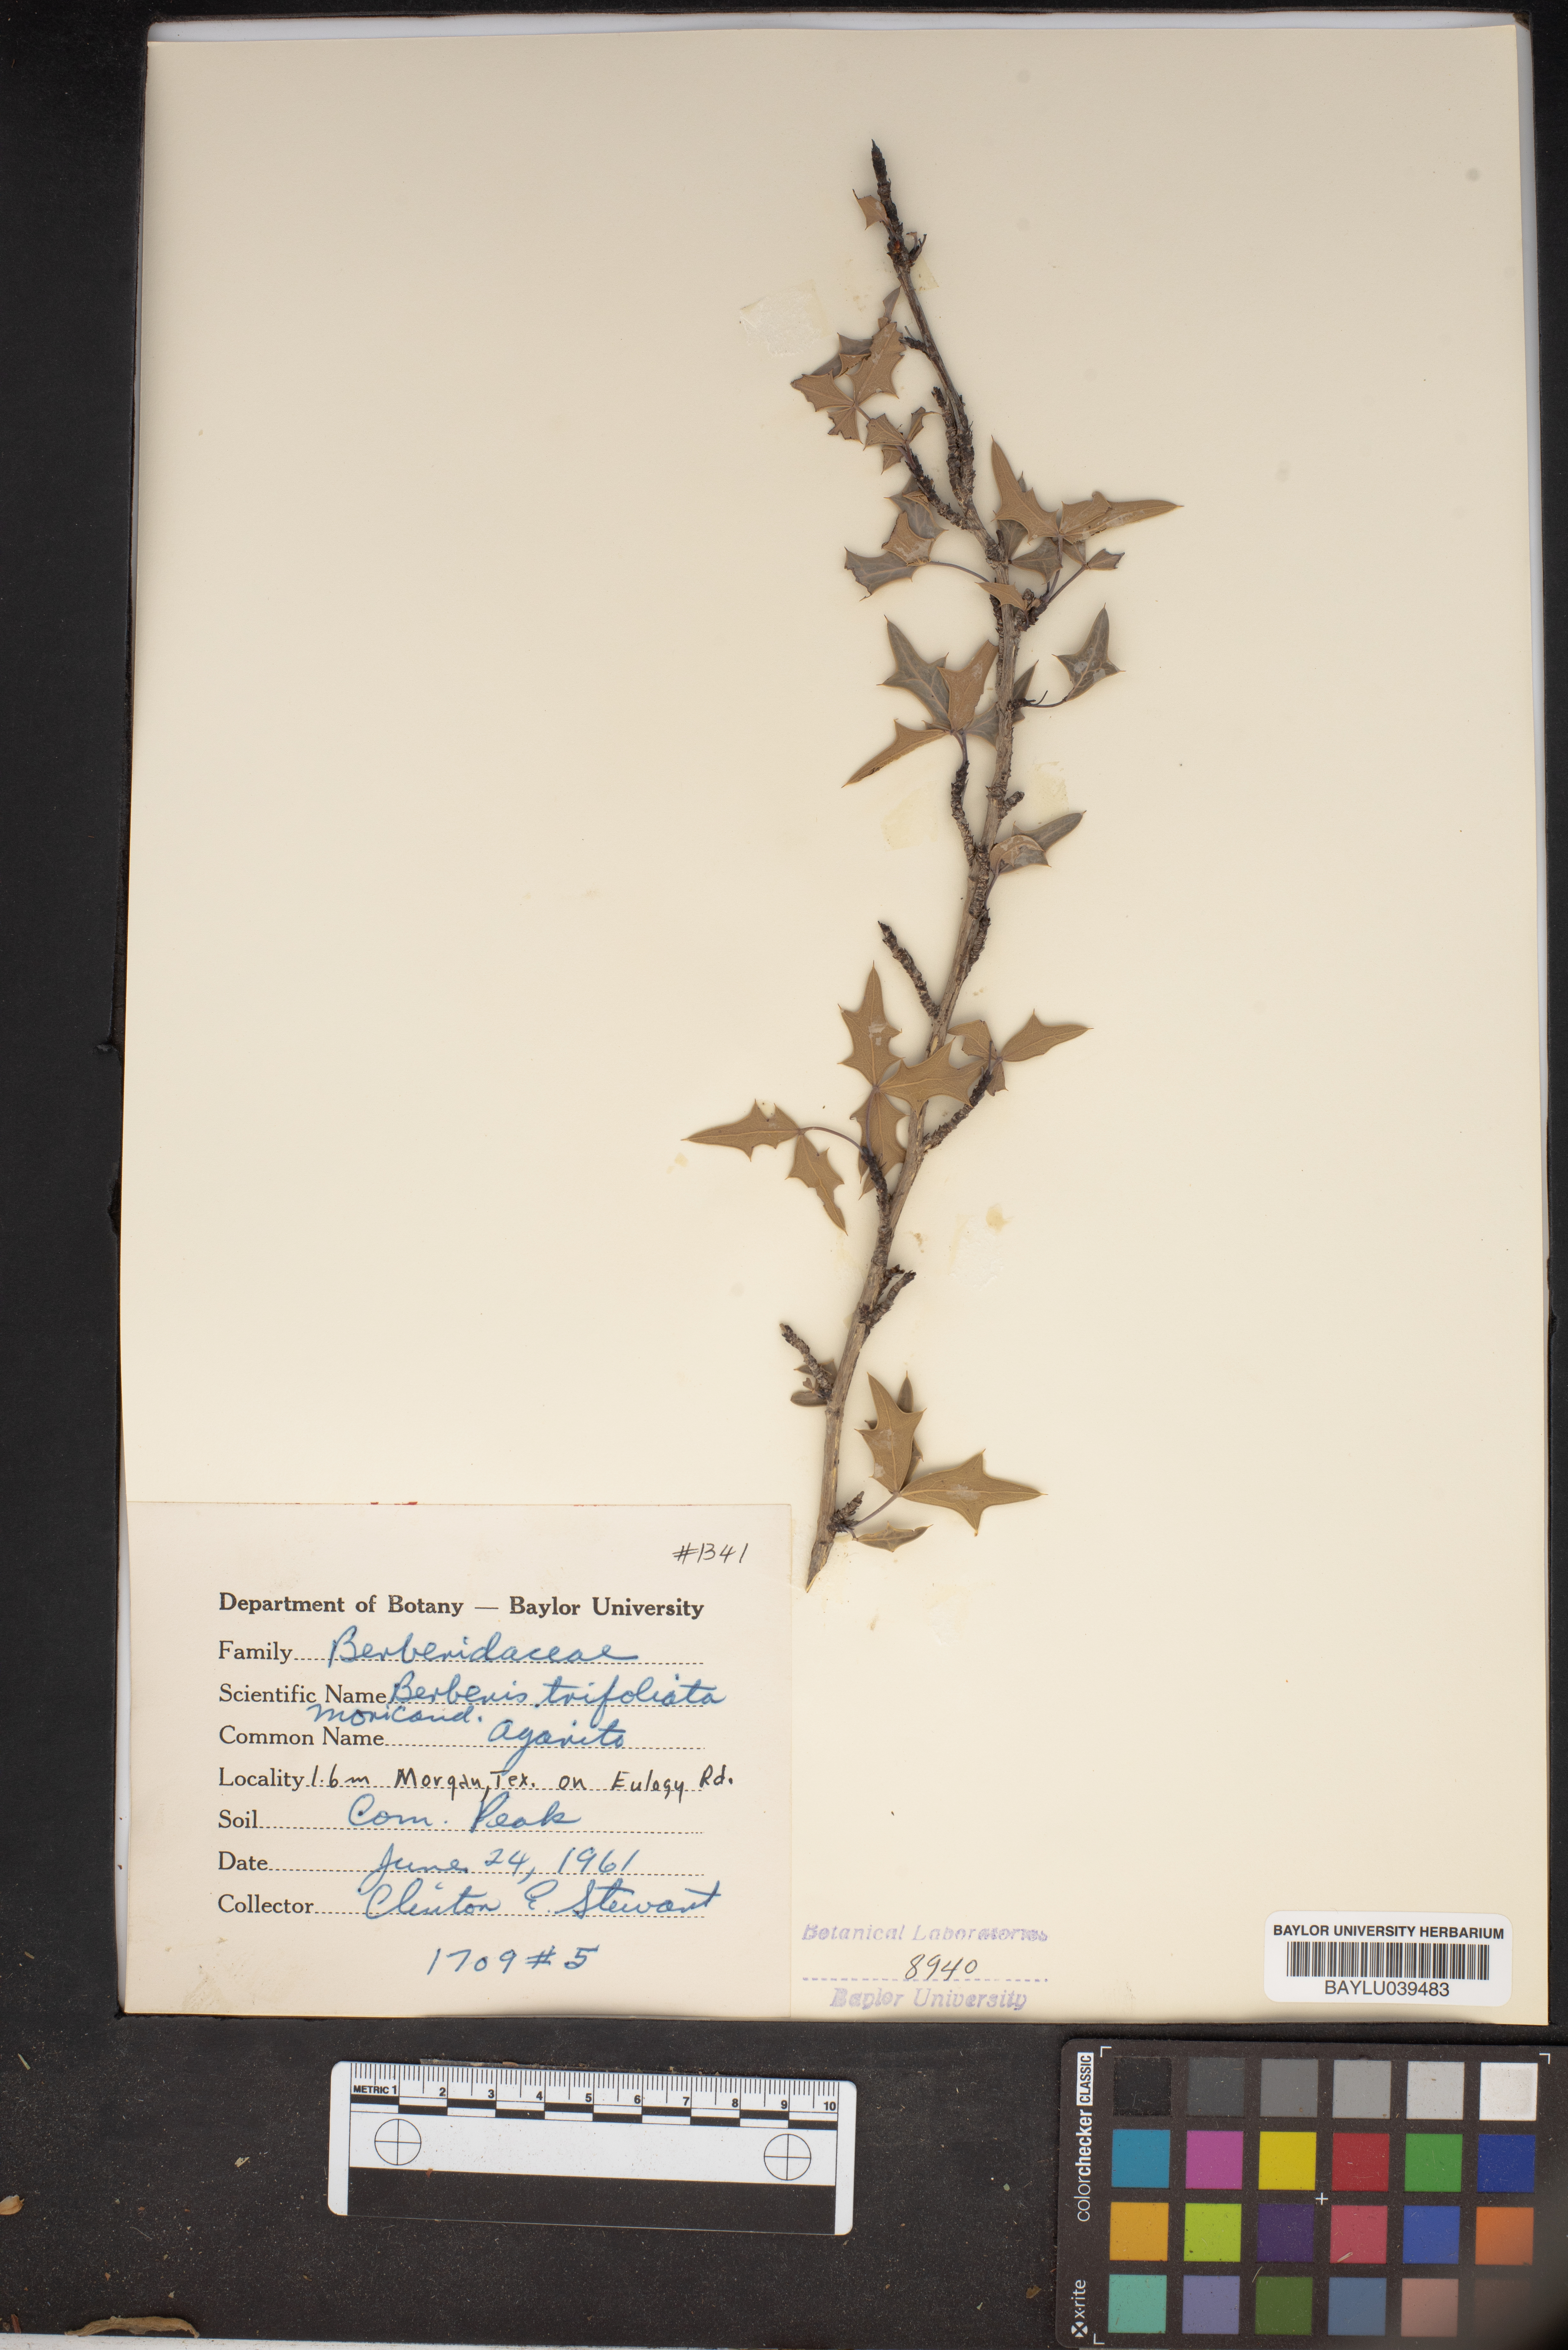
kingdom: Plantae
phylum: Tracheophyta
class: Magnoliopsida
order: Ranunculales
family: Berberidaceae
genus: Alloberberis
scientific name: Alloberberis fremontii
